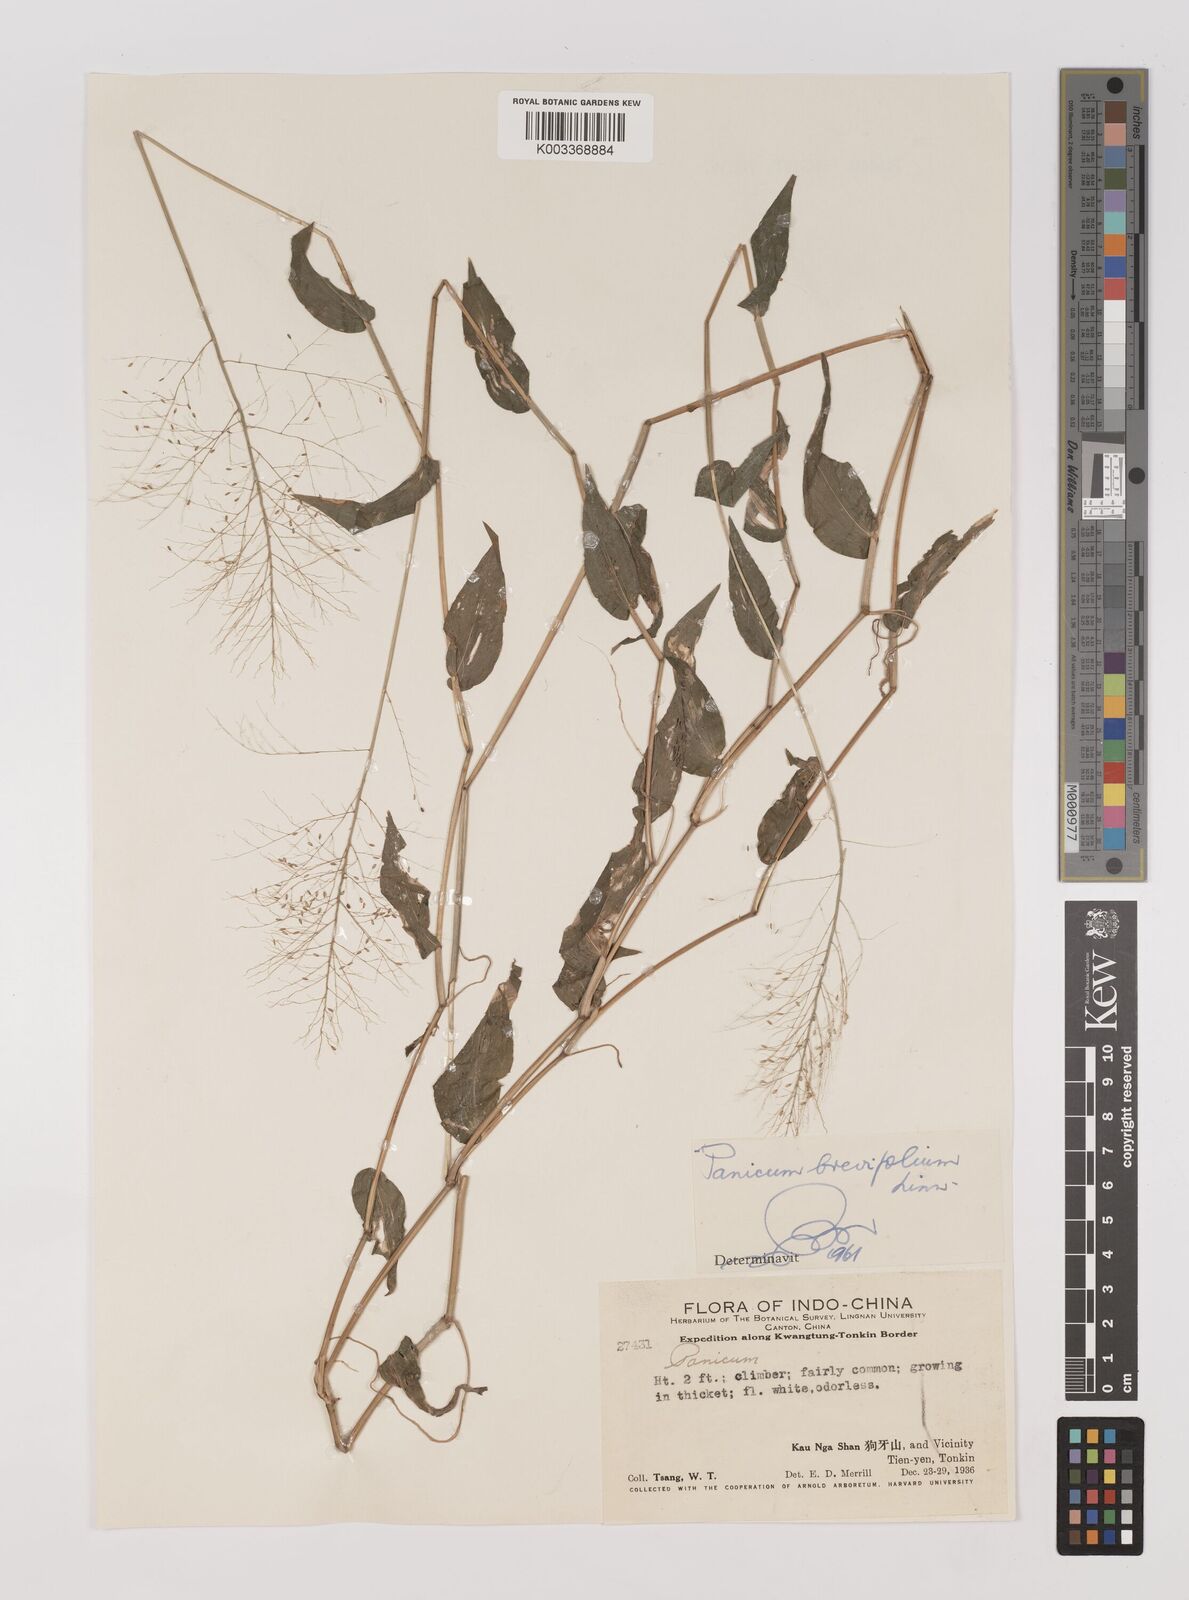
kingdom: Plantae
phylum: Tracheophyta
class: Liliopsida
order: Poales
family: Poaceae
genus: Panicum
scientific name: Panicum brevifolium
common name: Shortleaf panic grass
